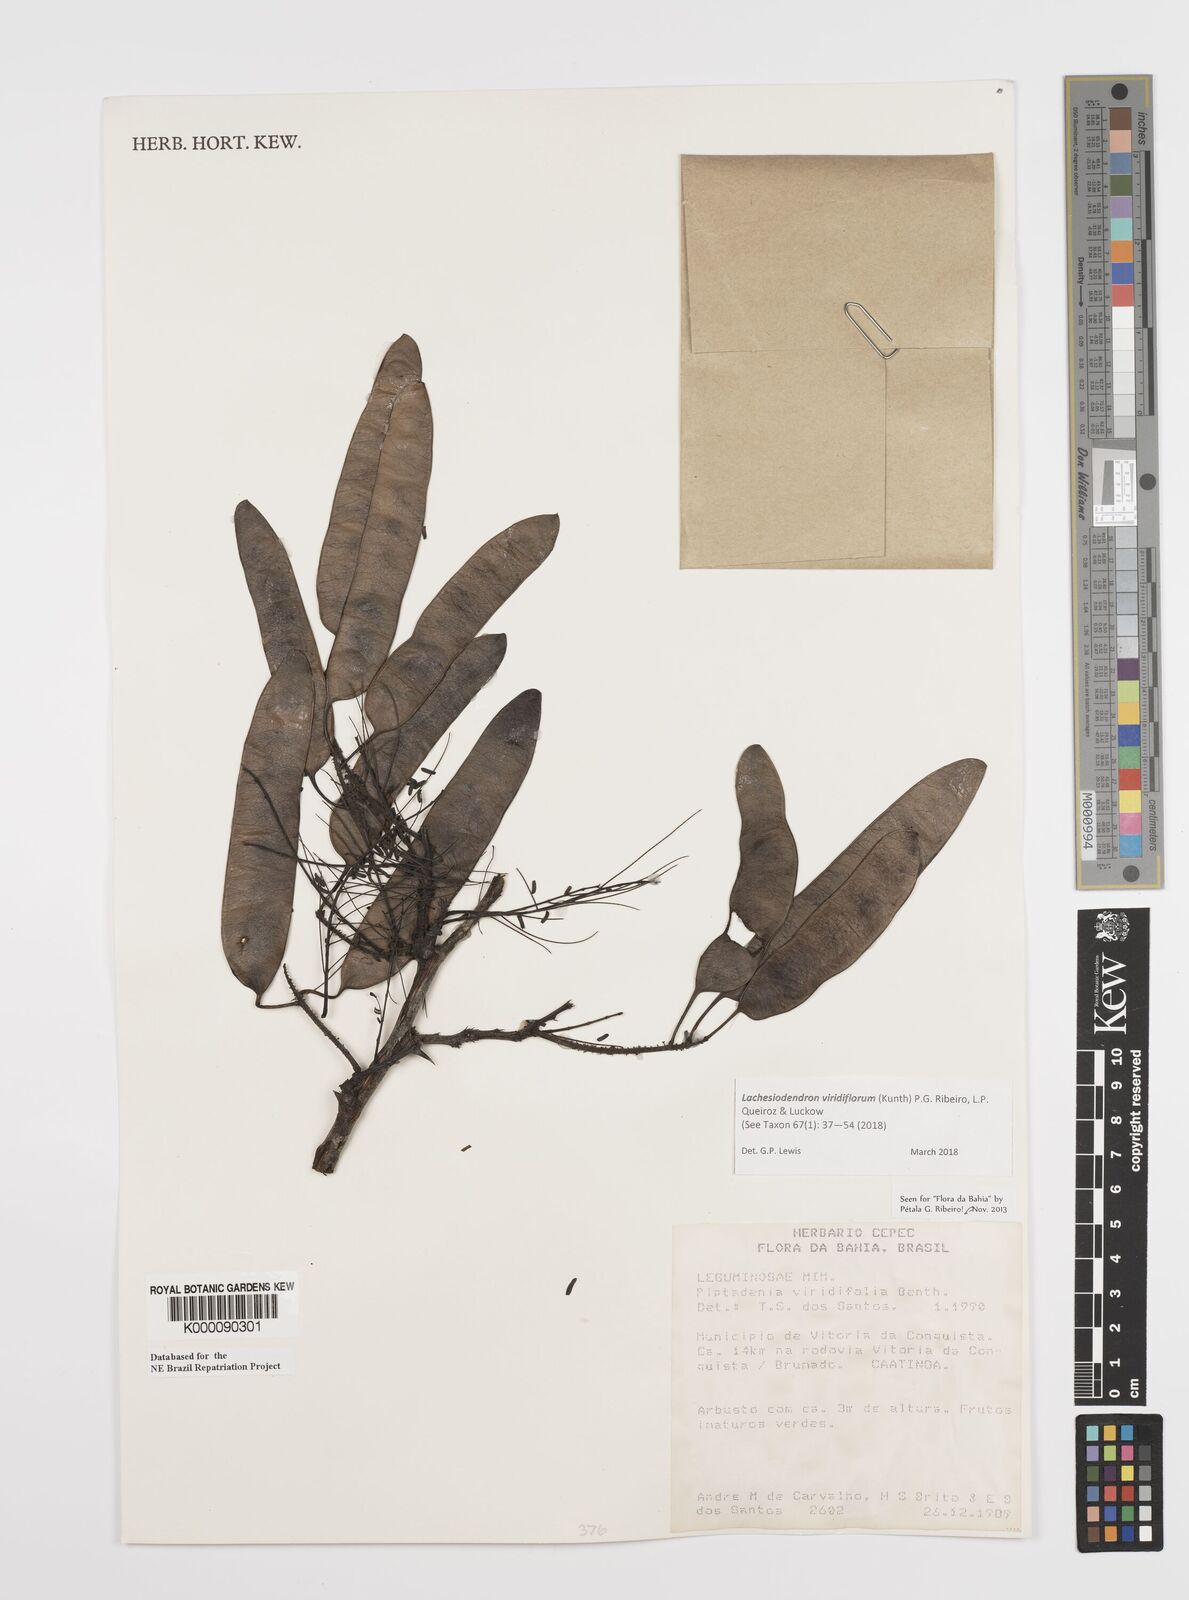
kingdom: Plantae
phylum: Tracheophyta
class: Magnoliopsida
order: Fabales
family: Fabaceae
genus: Lachesiodendron
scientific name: Lachesiodendron viridiflorum
